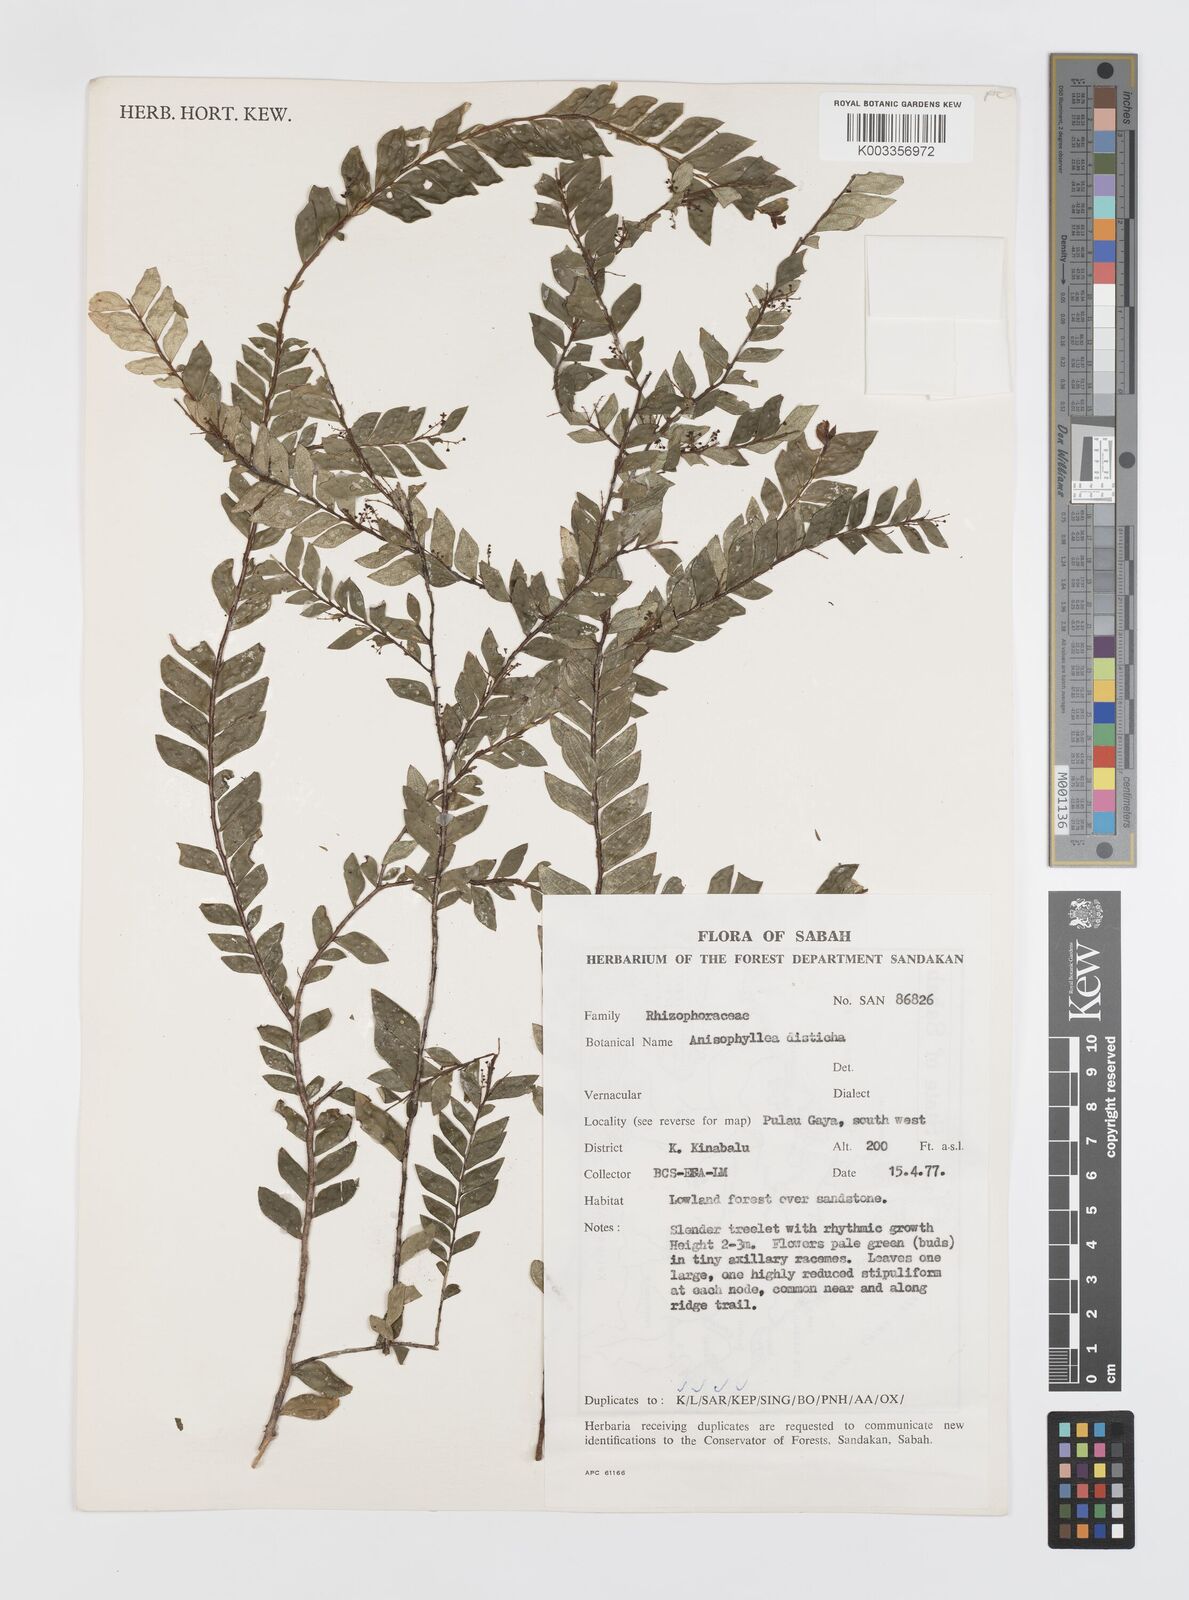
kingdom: Plantae
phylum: Tracheophyta
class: Magnoliopsida
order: Cucurbitales
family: Anisophylleaceae
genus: Anisophyllea
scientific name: Anisophyllea disticha
